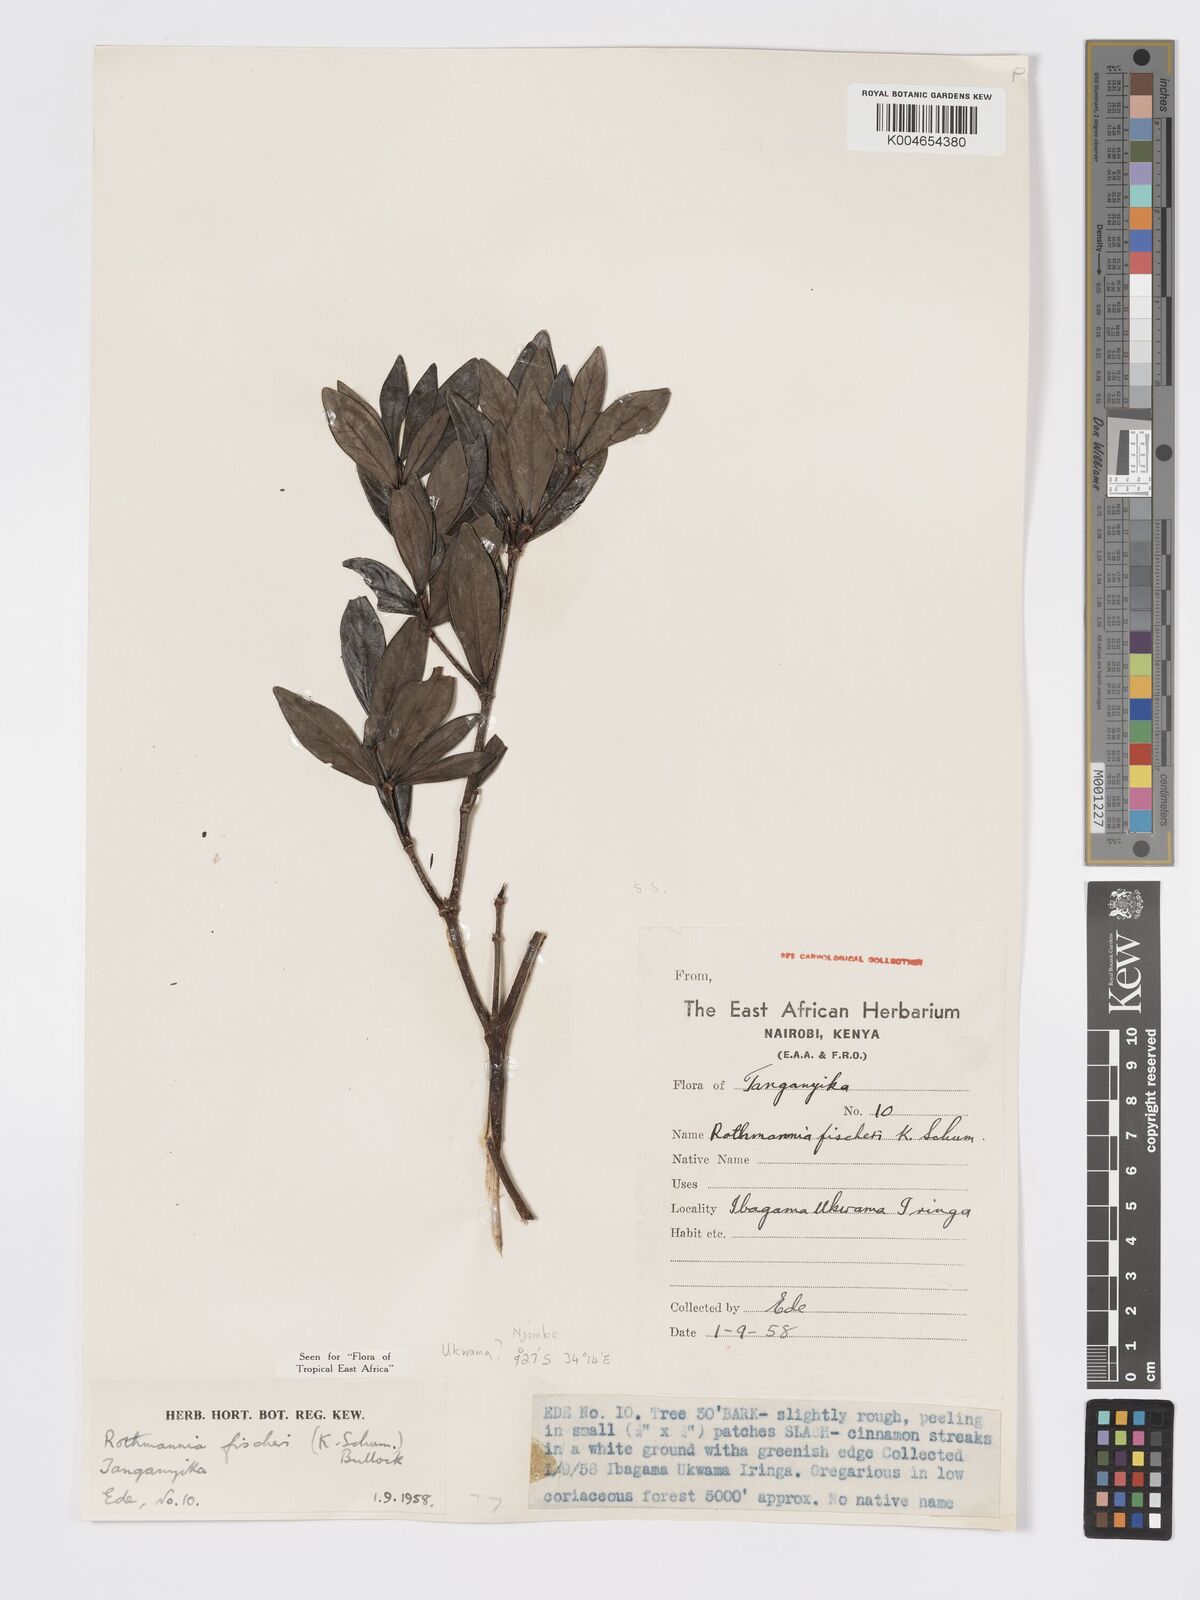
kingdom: Plantae
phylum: Tracheophyta
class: Magnoliopsida
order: Gentianales
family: Rubiaceae
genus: Rothmannia
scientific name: Rothmannia fischeri
